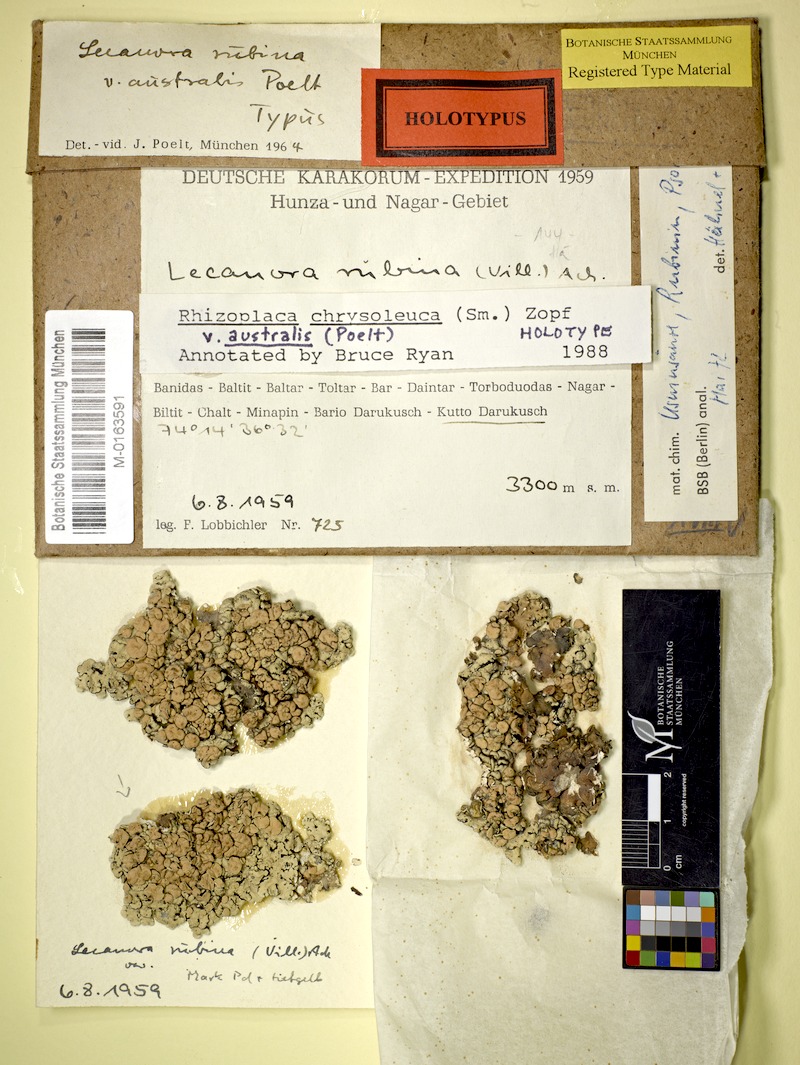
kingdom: Fungi
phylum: Ascomycota
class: Lecanoromycetes
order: Lecanorales
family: Lecanoraceae
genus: Omphalodina
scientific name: Omphalodina chrysoleuca
